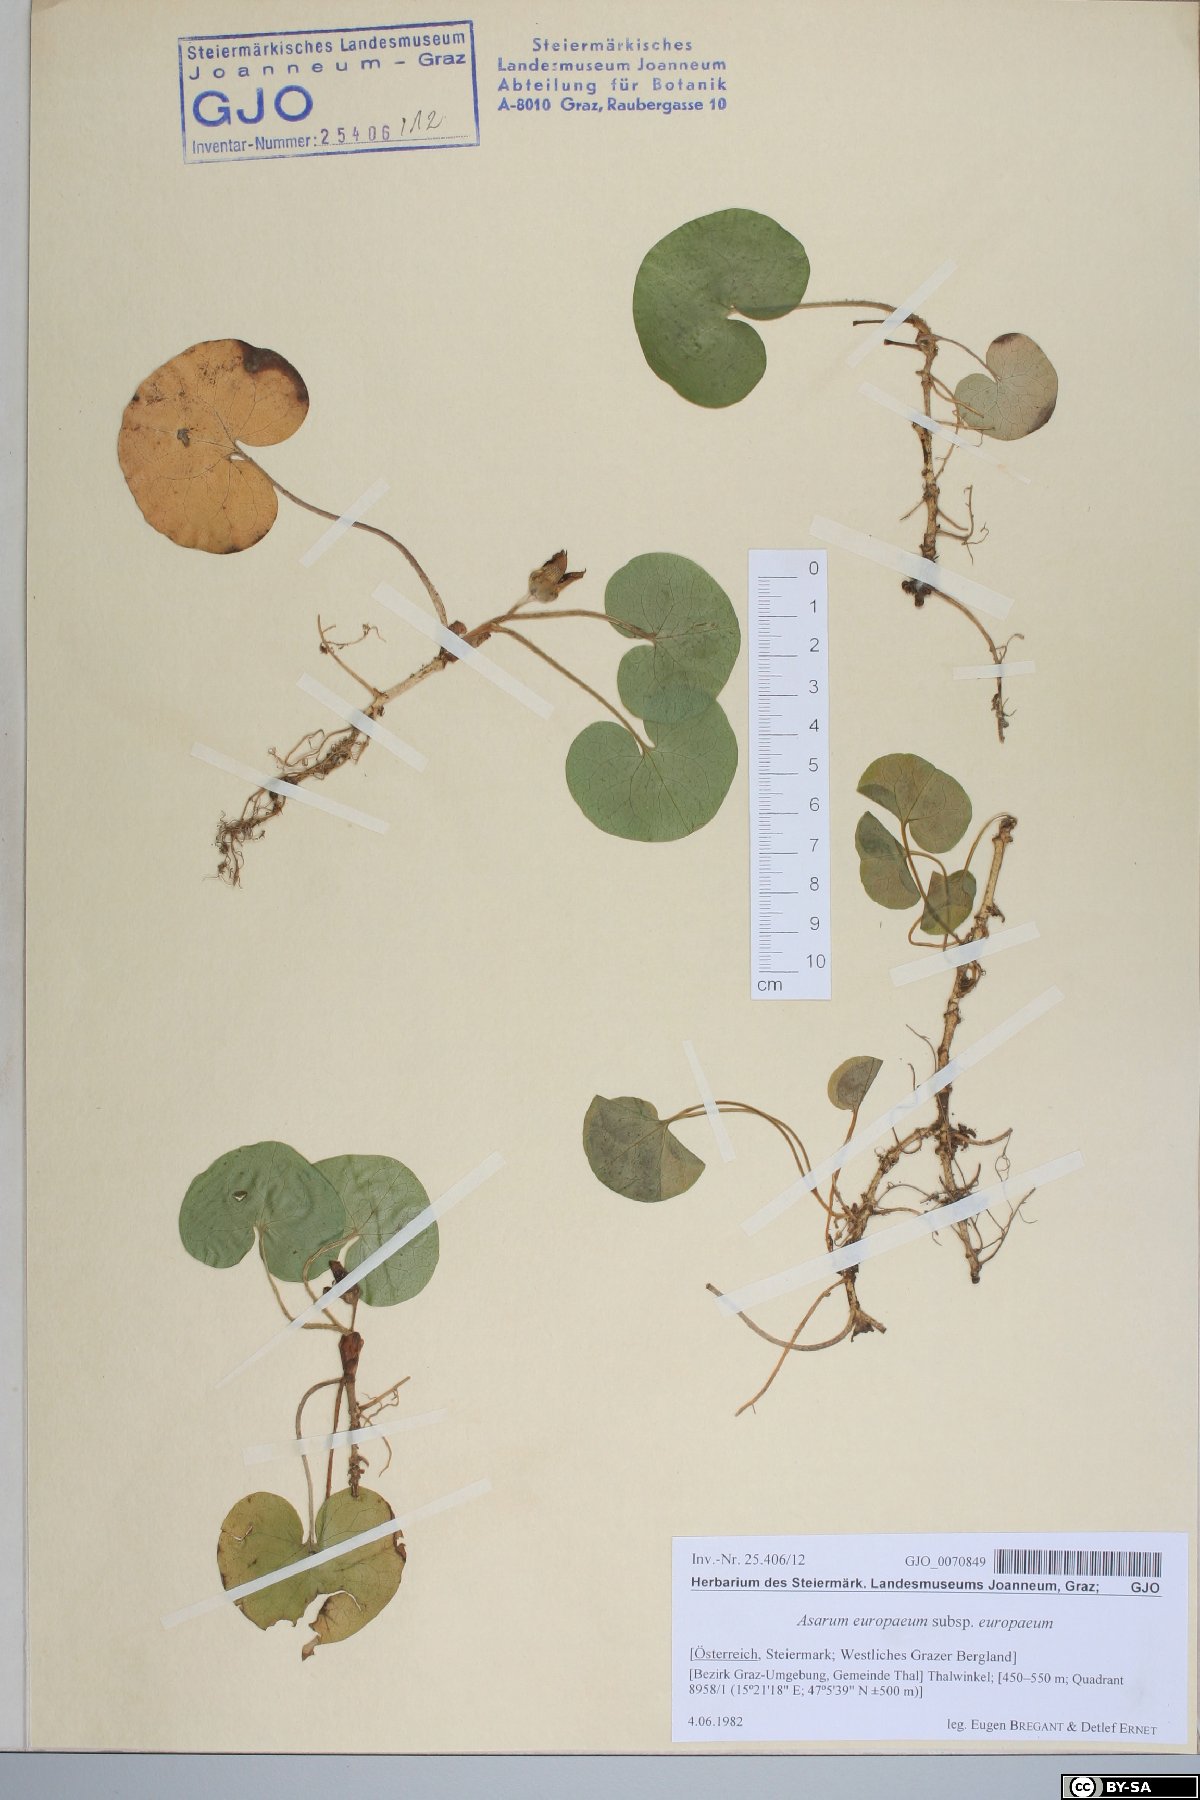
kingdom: Plantae
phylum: Tracheophyta
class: Magnoliopsida
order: Piperales
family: Aristolochiaceae
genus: Asarum
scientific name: Asarum europaeum
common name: Asarabacca
